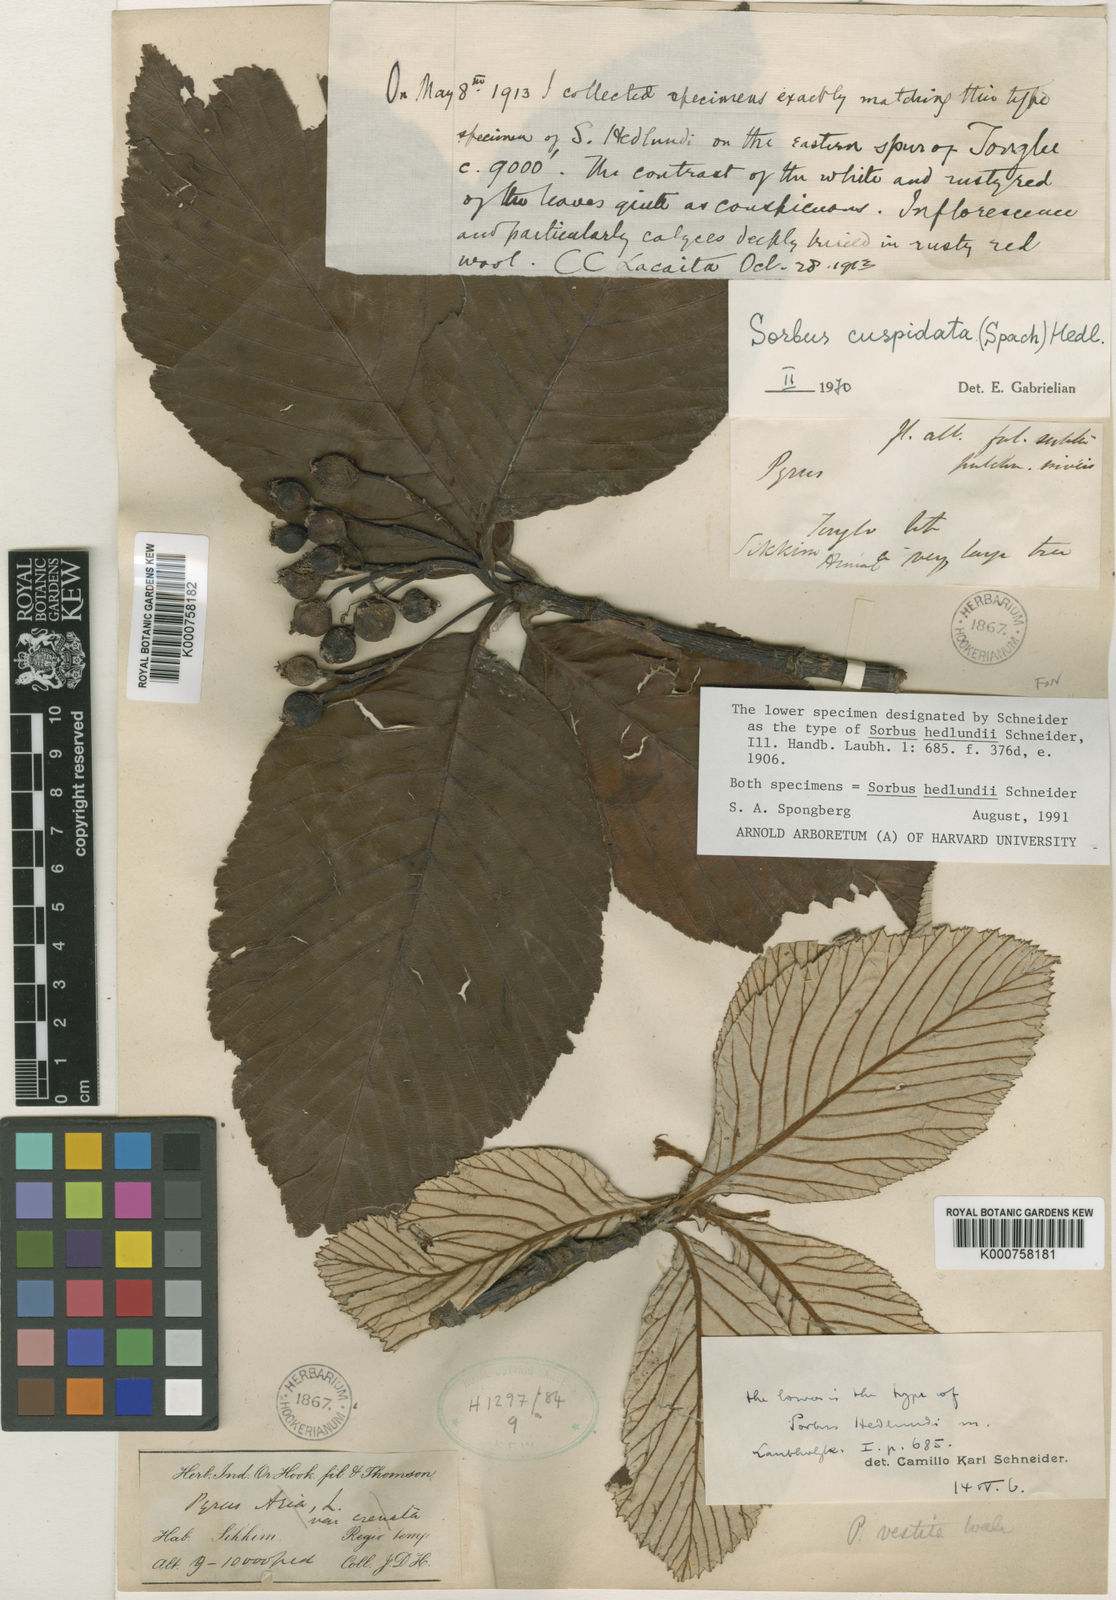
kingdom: Plantae
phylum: Tracheophyta
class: Magnoliopsida
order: Rosales
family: Rosaceae
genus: Sorbus
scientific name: Sorbus hedlundii
